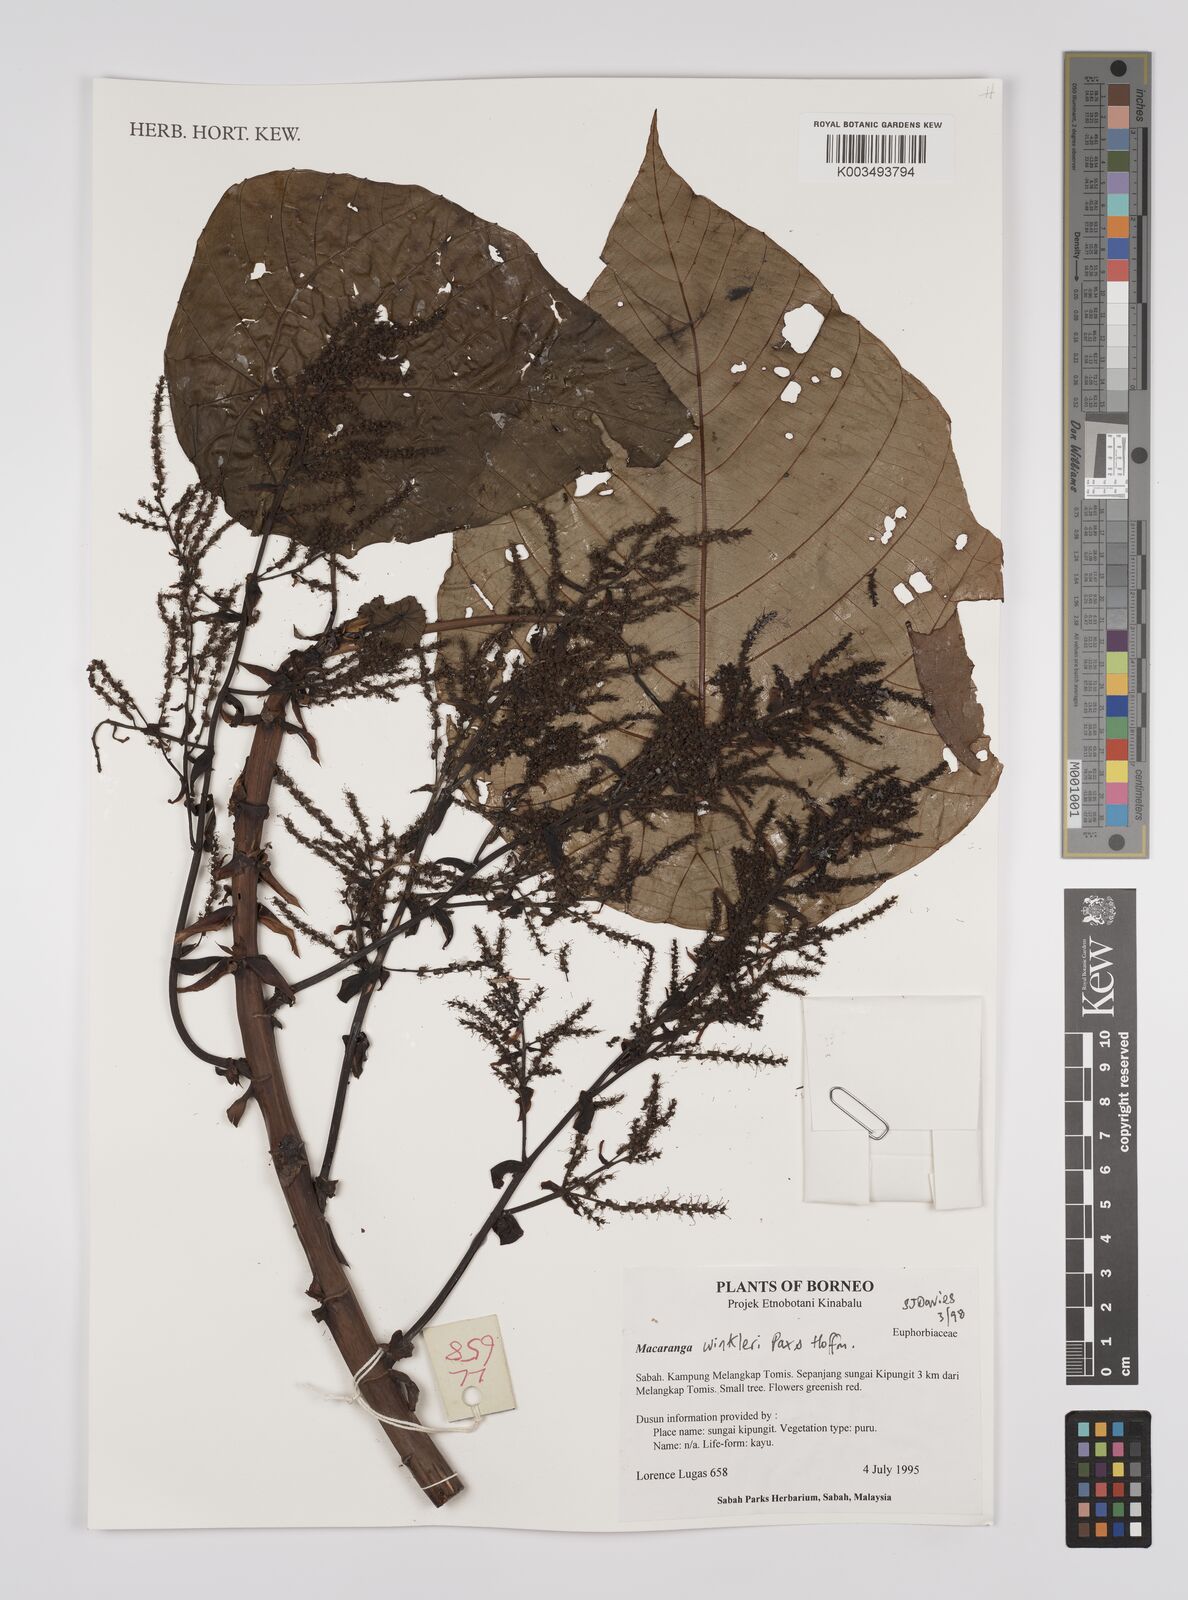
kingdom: Plantae
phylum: Tracheophyta
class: Magnoliopsida
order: Malpighiales
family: Euphorbiaceae
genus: Macaranga
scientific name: Macaranga winkleri
